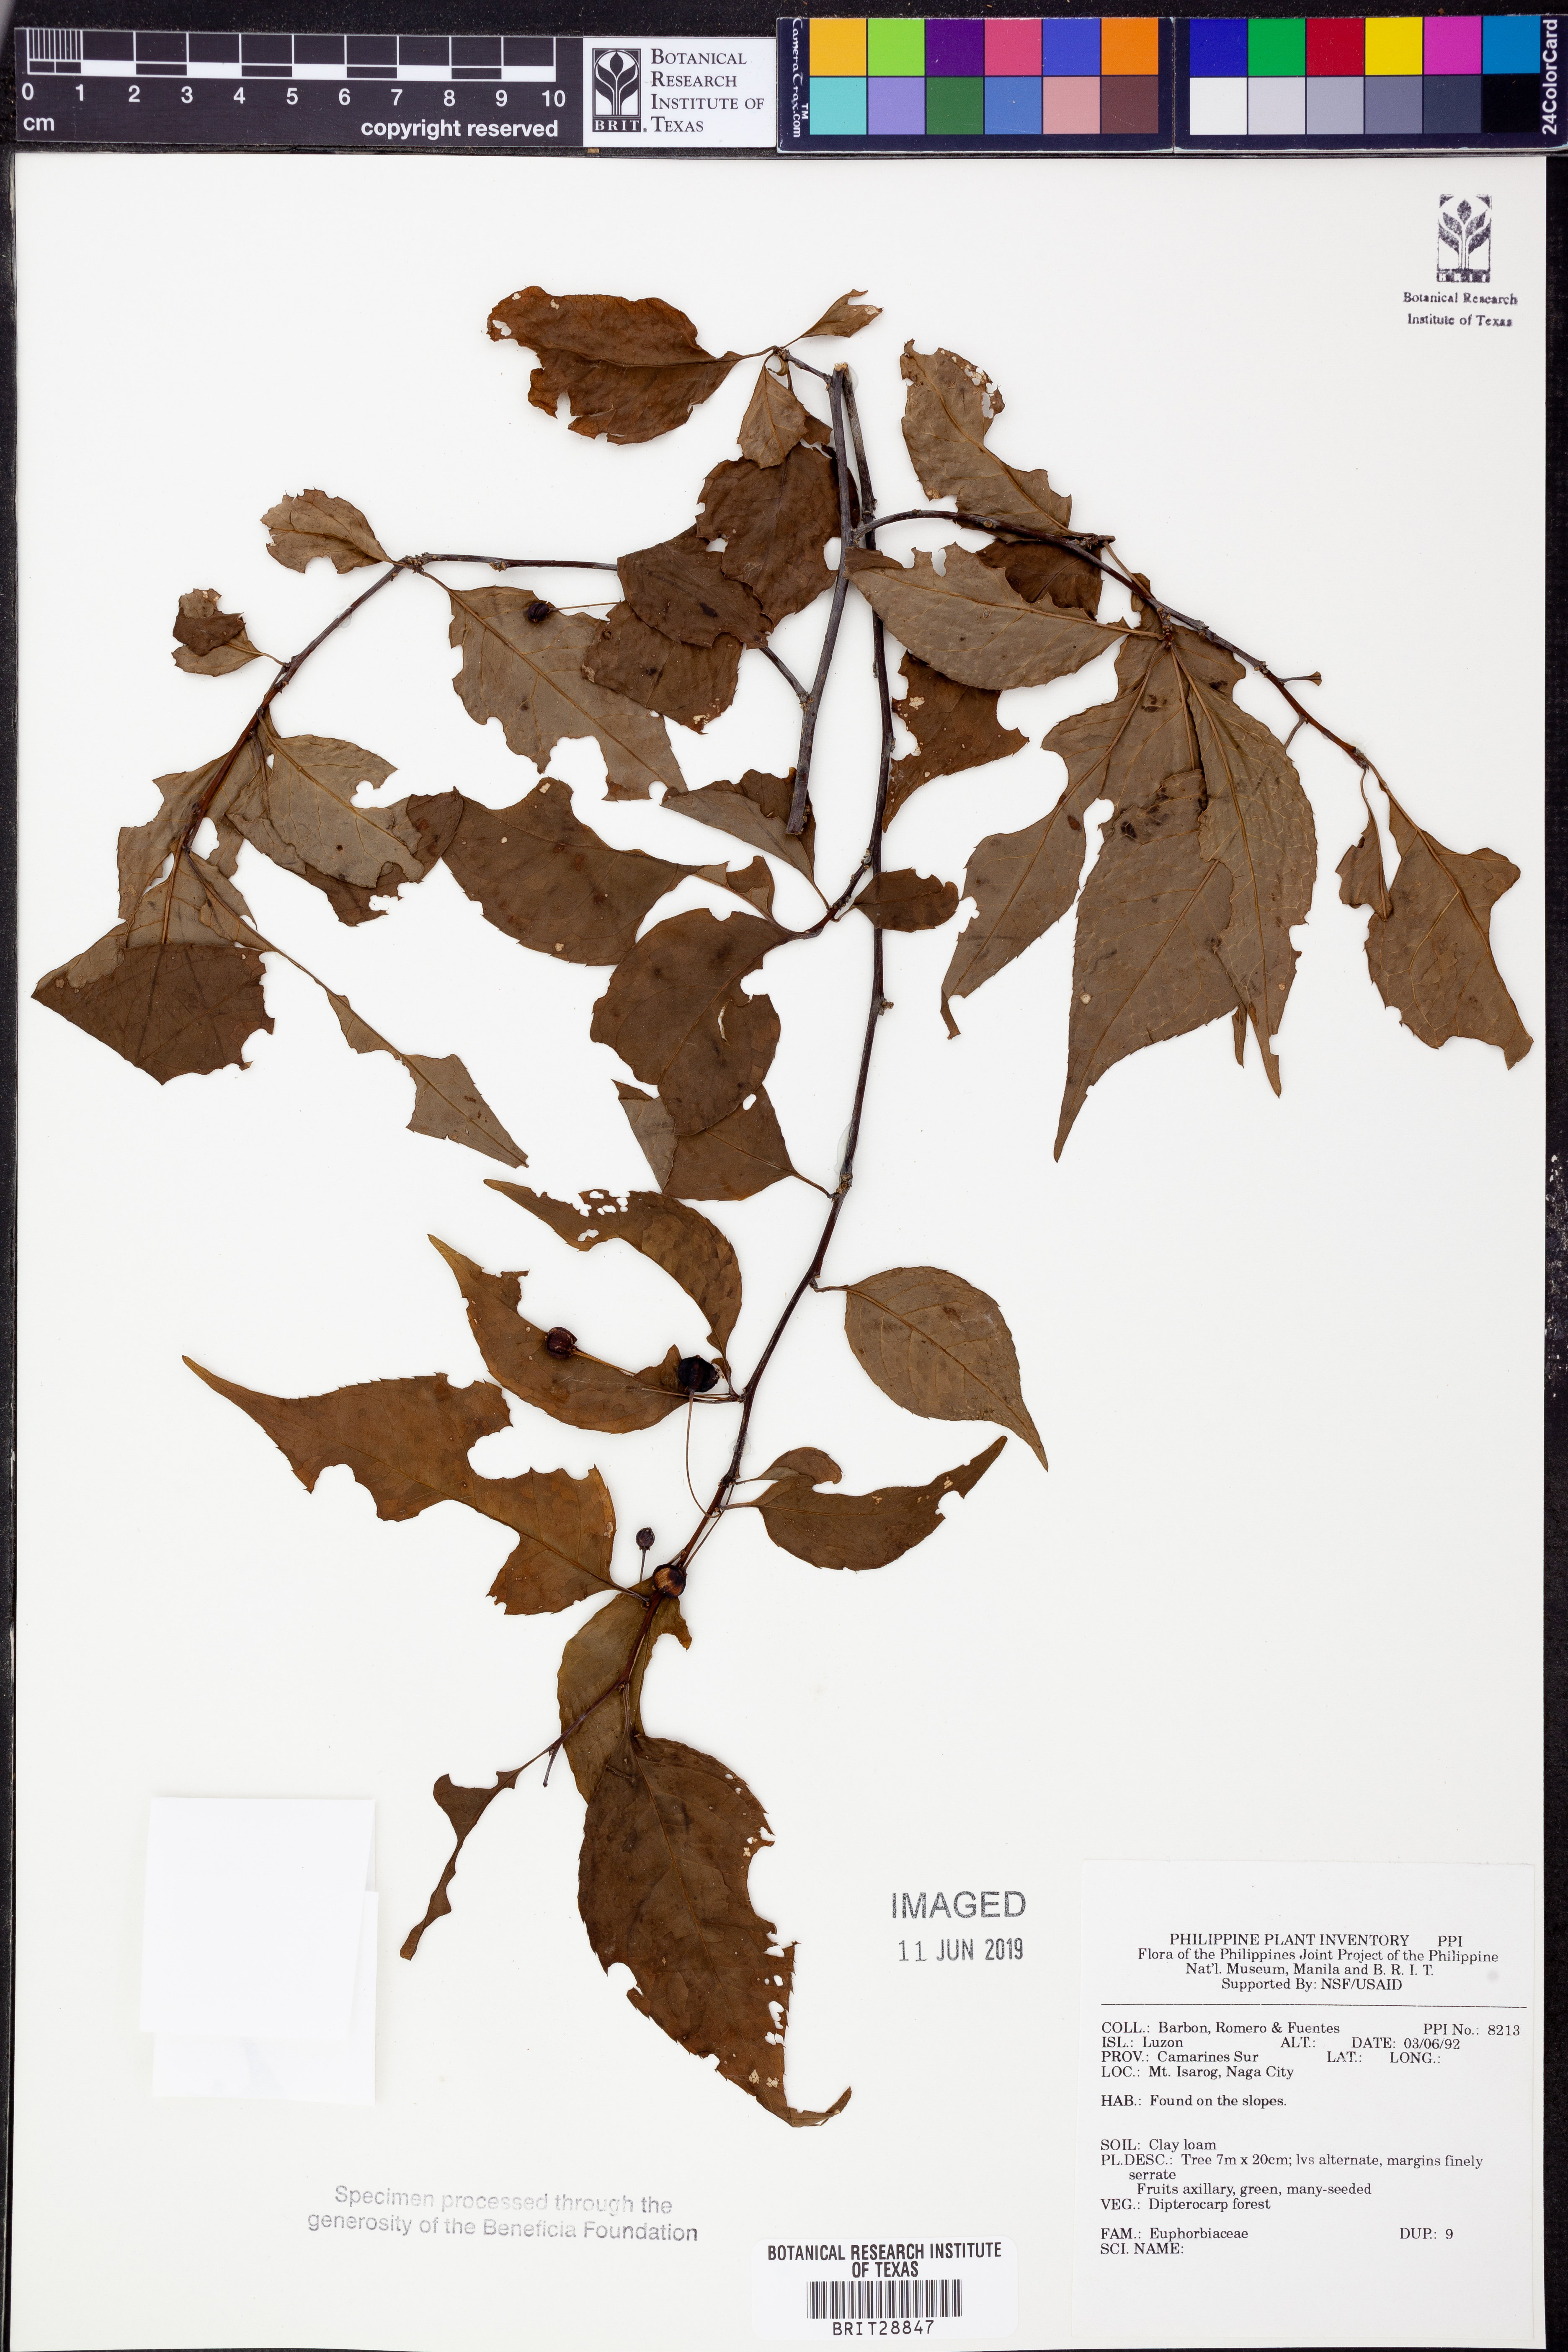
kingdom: Plantae
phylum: Tracheophyta
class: Magnoliopsida
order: Malpighiales
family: Euphorbiaceae
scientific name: Euphorbiaceae
